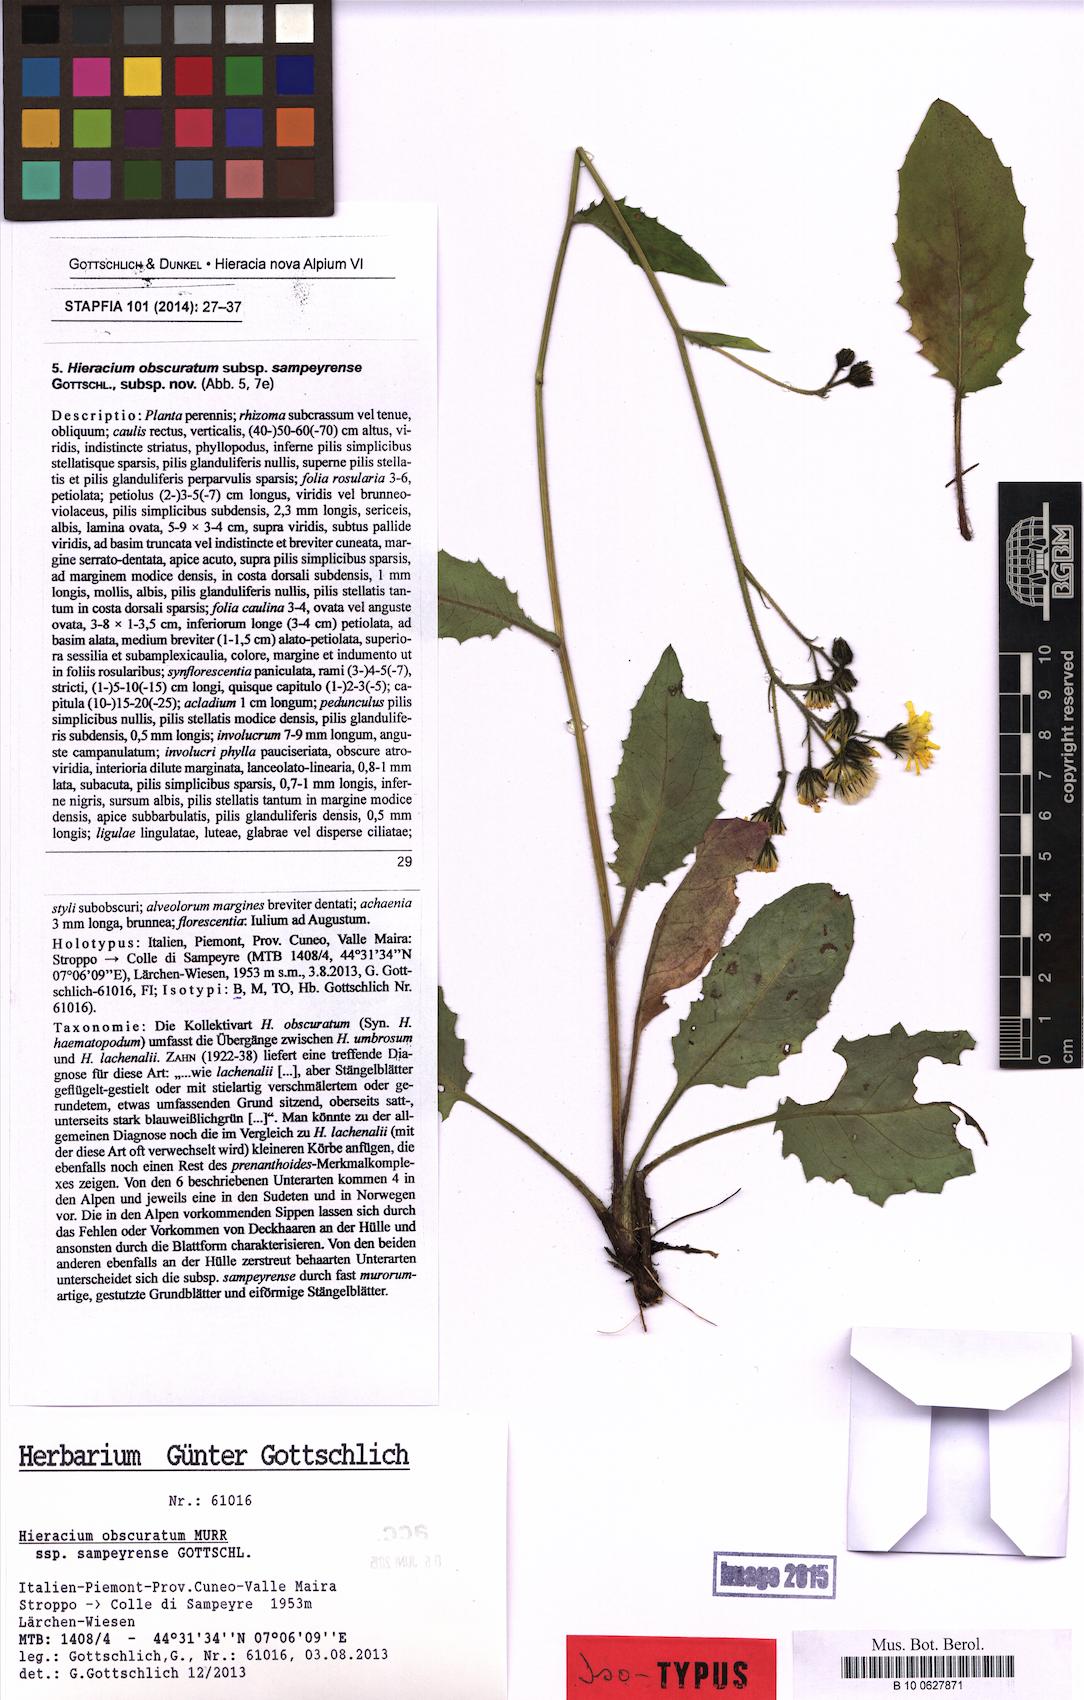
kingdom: Plantae
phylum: Tracheophyta
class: Magnoliopsida
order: Asterales
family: Asteraceae
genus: Hieracium
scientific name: Hieracium obscuratum
